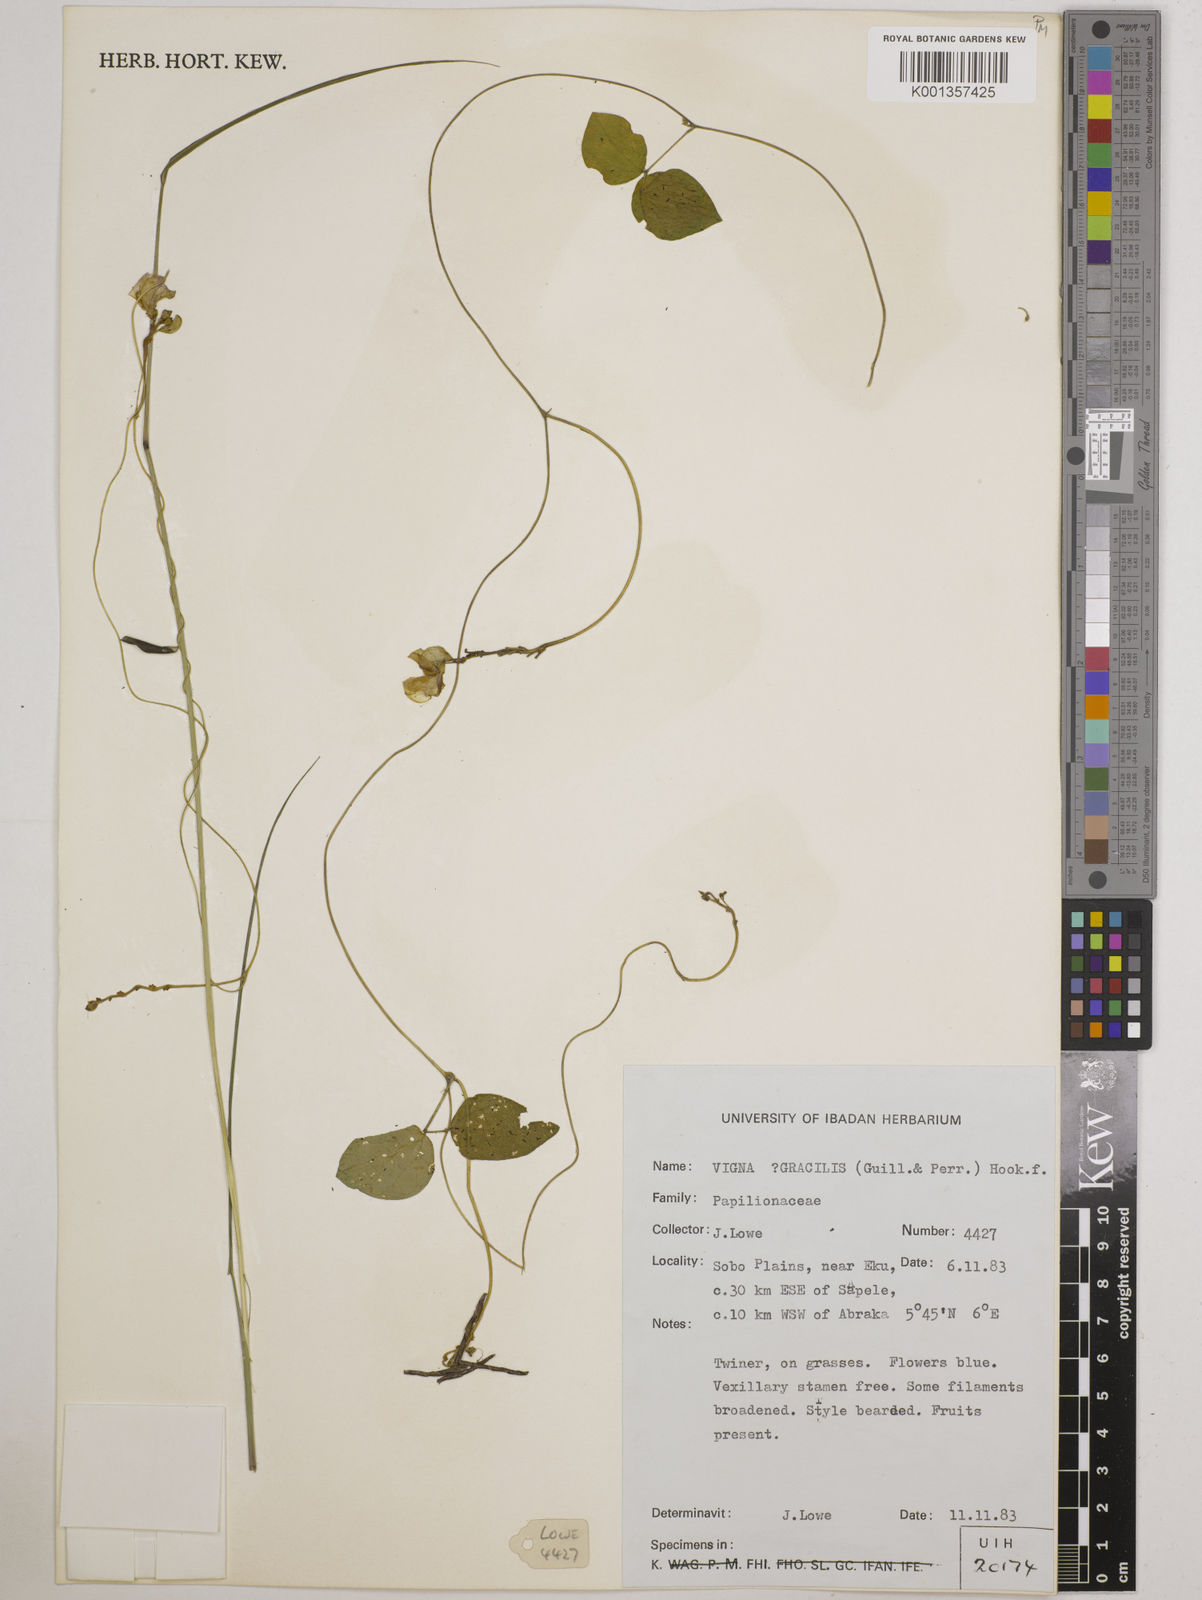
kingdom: Plantae
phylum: Tracheophyta
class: Magnoliopsida
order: Fabales
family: Fabaceae
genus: Vigna
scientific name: Vigna gracilis
